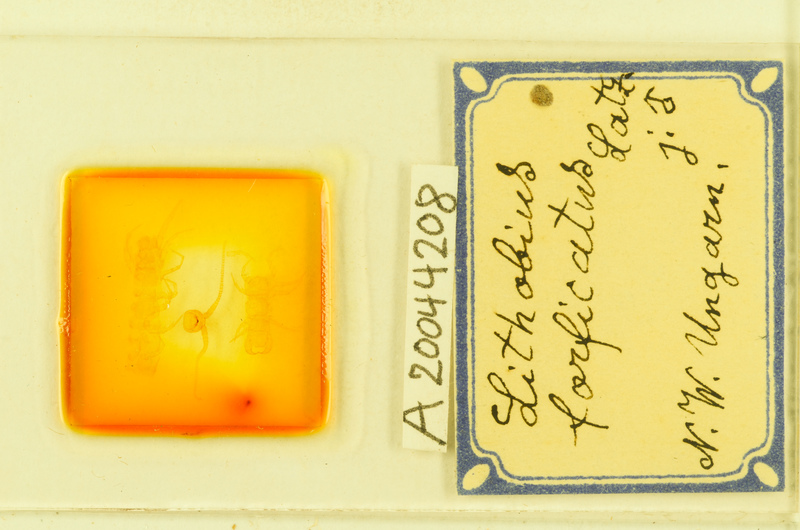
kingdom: Animalia
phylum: Arthropoda
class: Chilopoda
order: Lithobiomorpha
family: Lithobiidae
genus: Lithobius
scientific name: Lithobius forficatus
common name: Centipede
